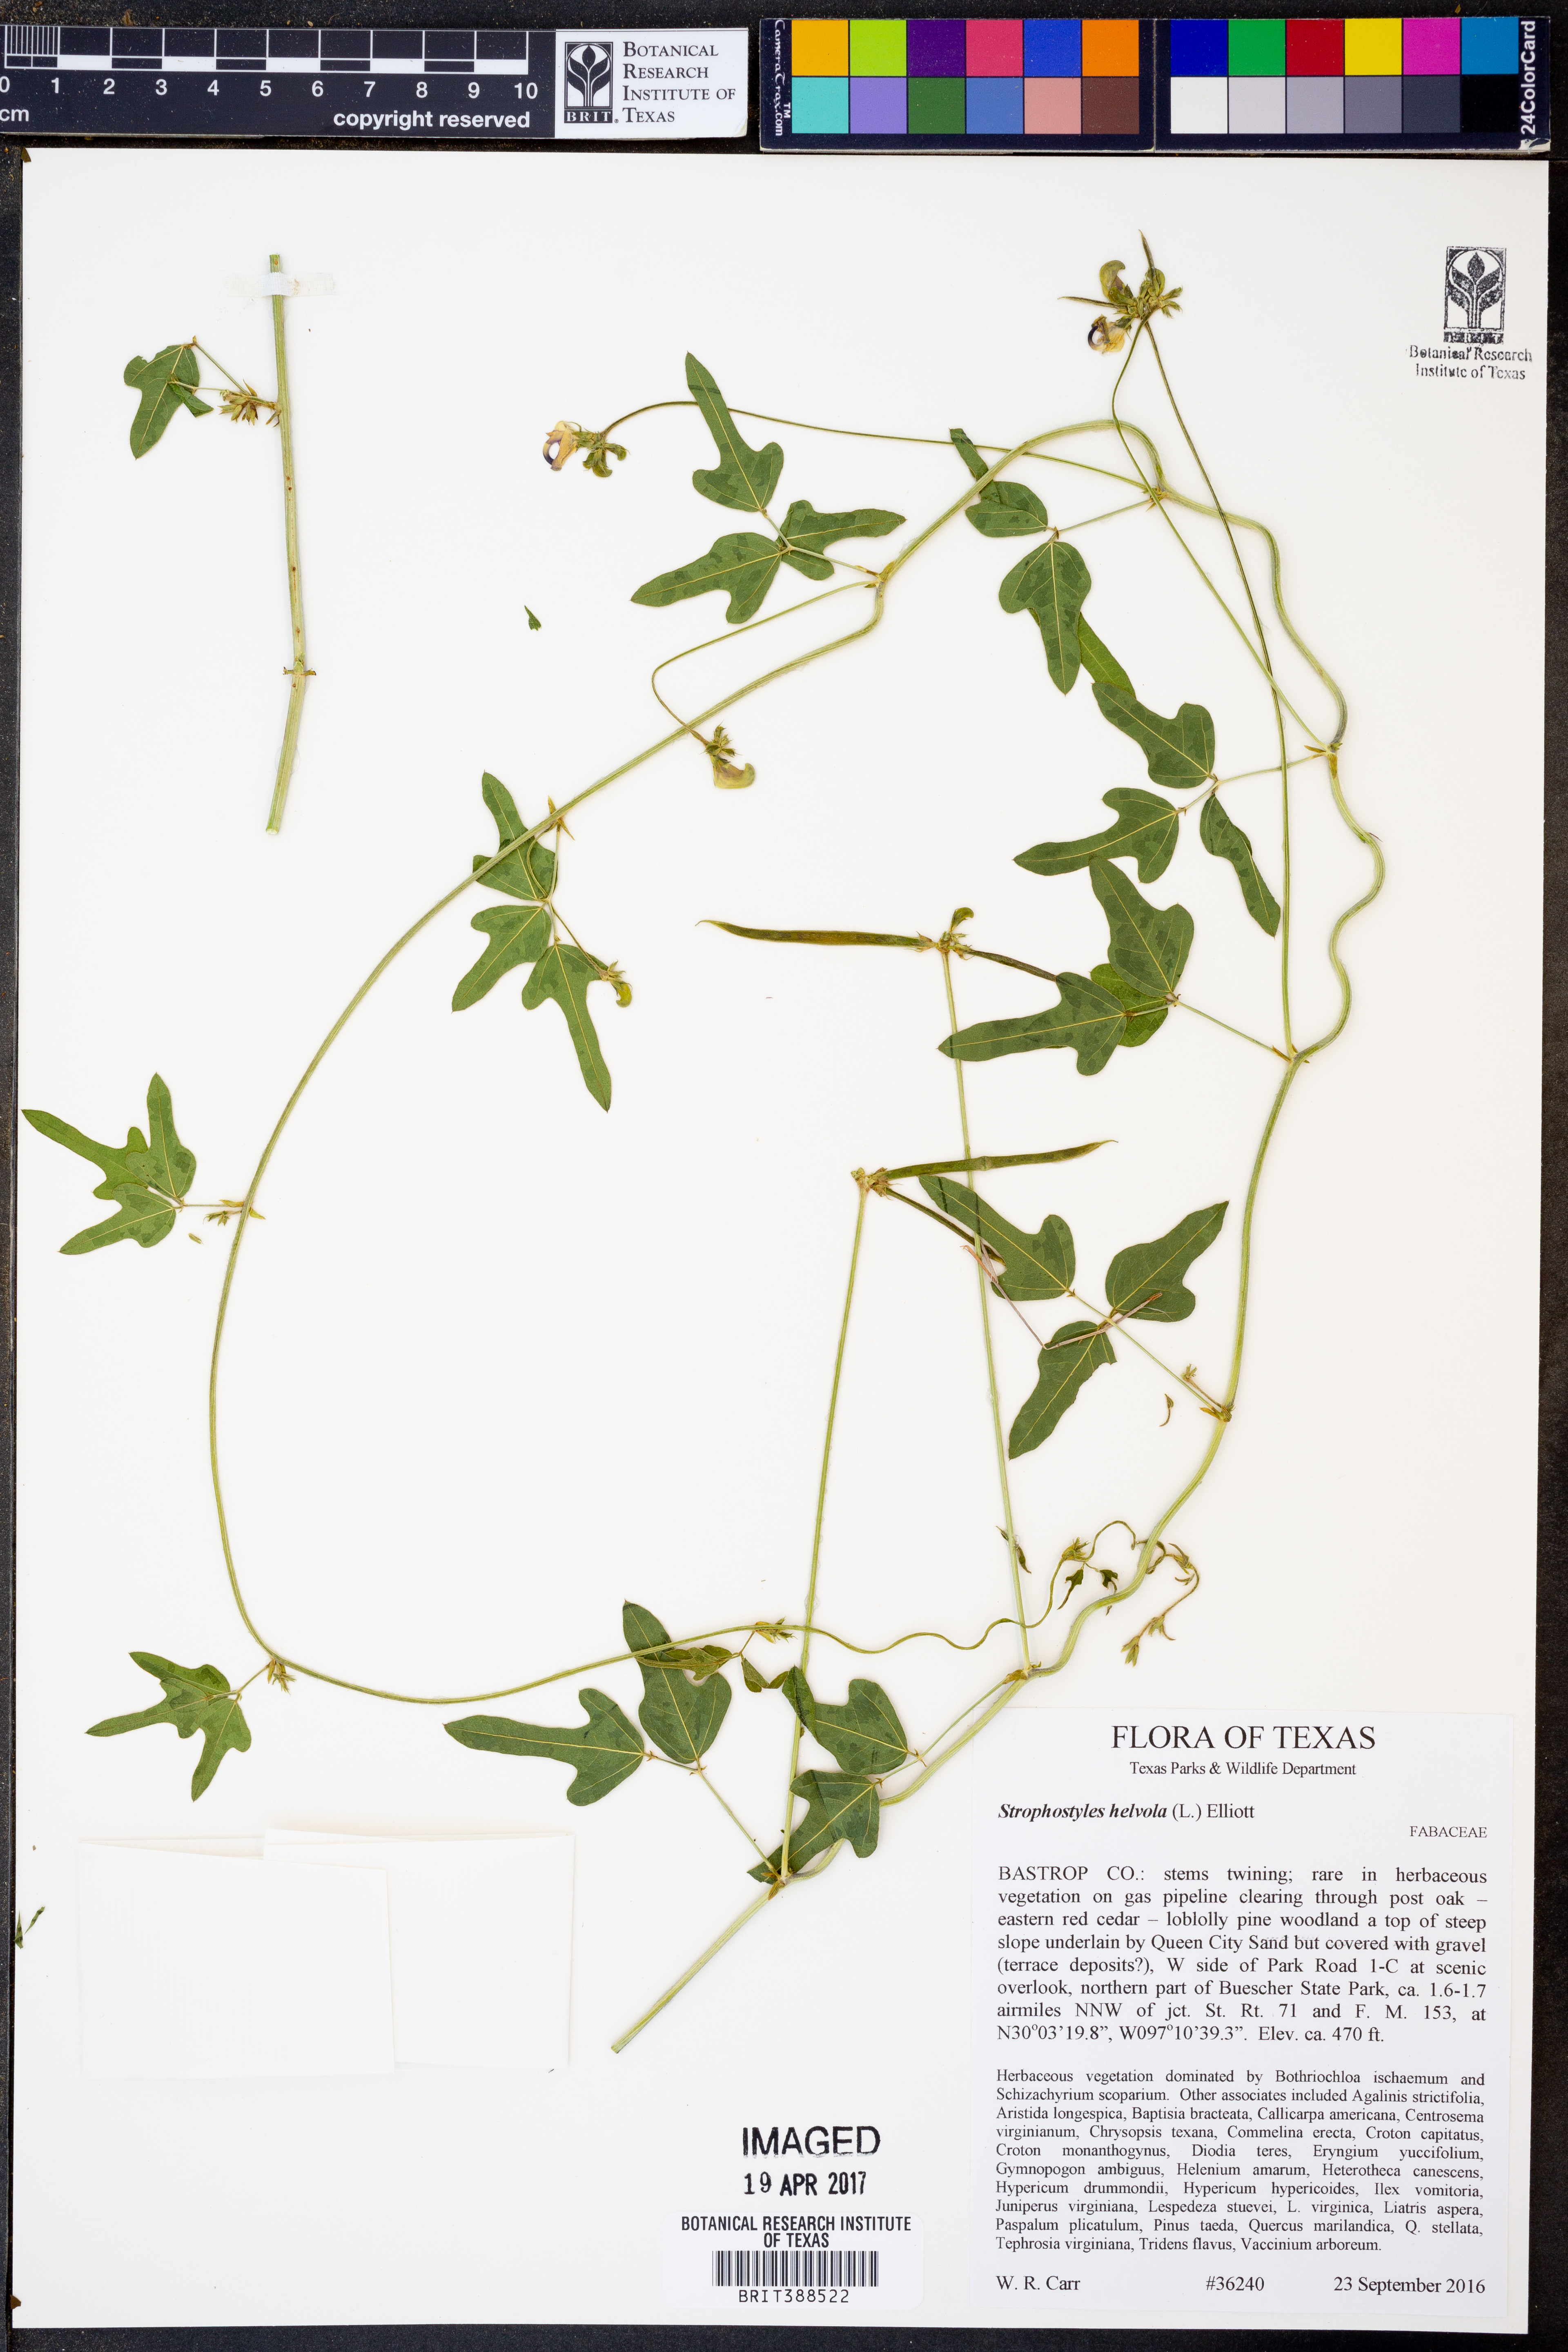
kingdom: Plantae
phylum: Tracheophyta
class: Magnoliopsida
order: Fabales
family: Fabaceae
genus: Strophostyles
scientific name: Strophostyles helvola
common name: Trailing wild bean
